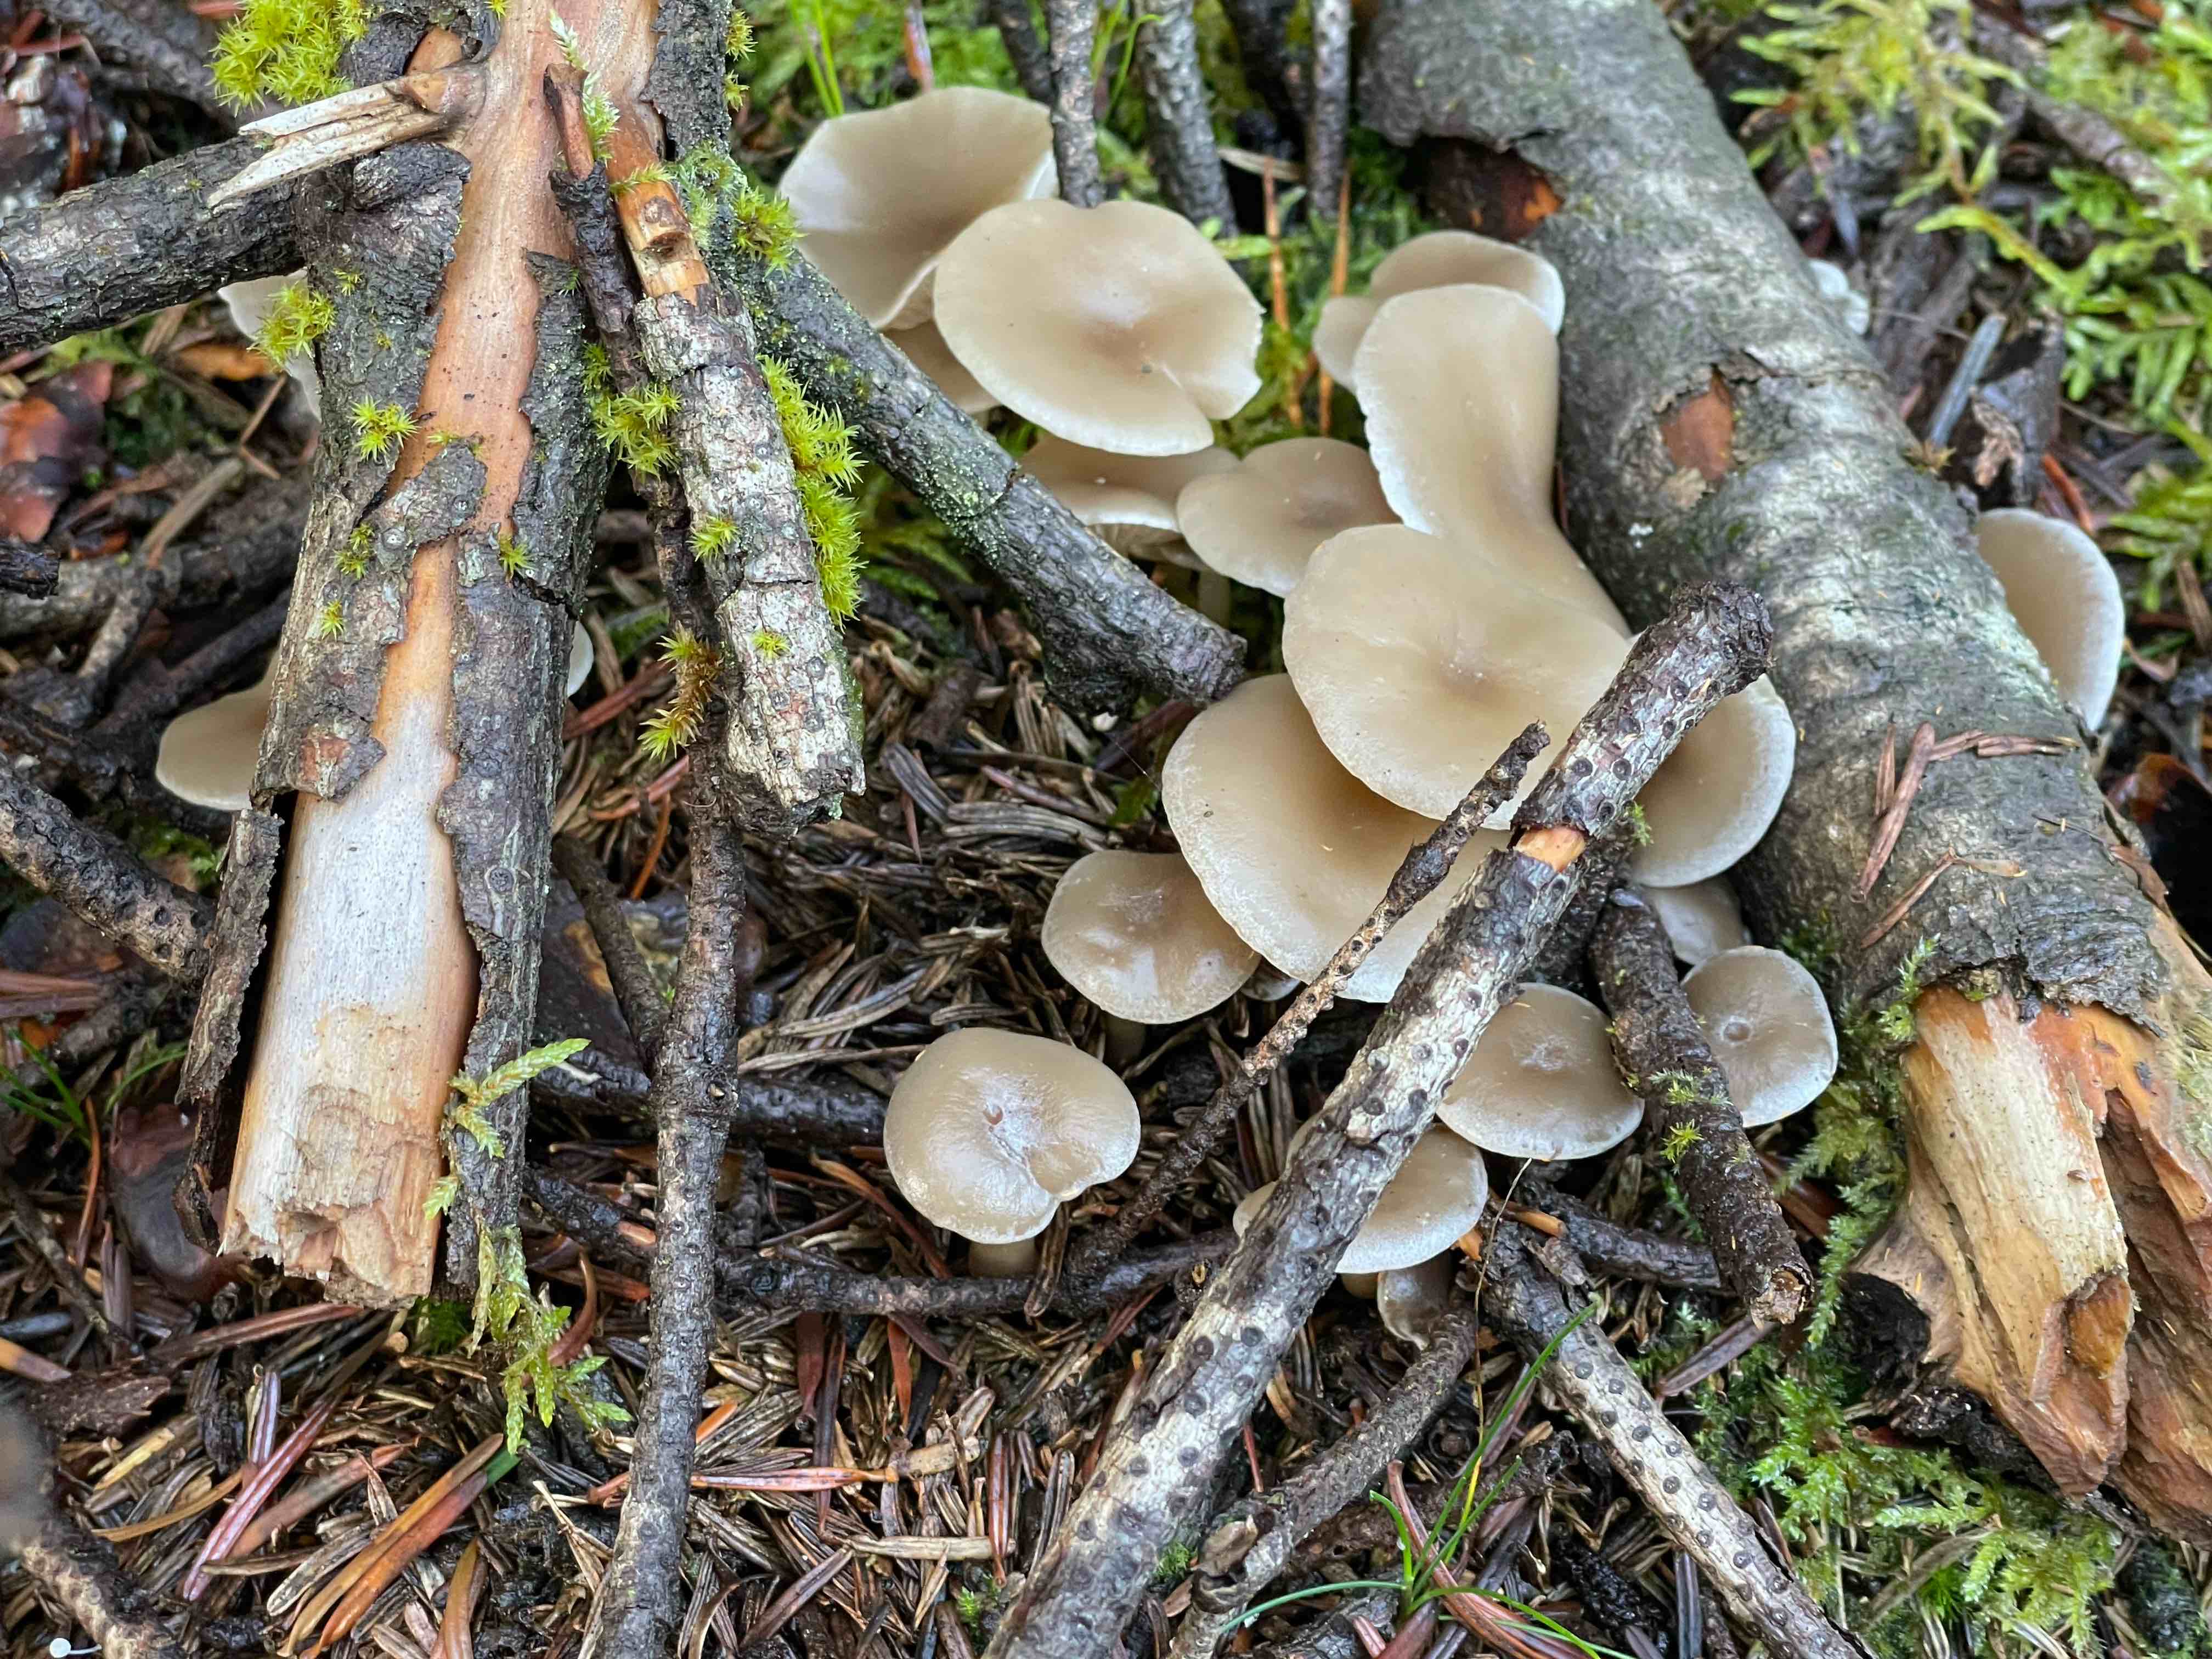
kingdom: Fungi
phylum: Basidiomycota
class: Agaricomycetes
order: Agaricales
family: Tricholomataceae
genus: Clitocybe
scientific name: Clitocybe metachroa
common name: grå tragthat
